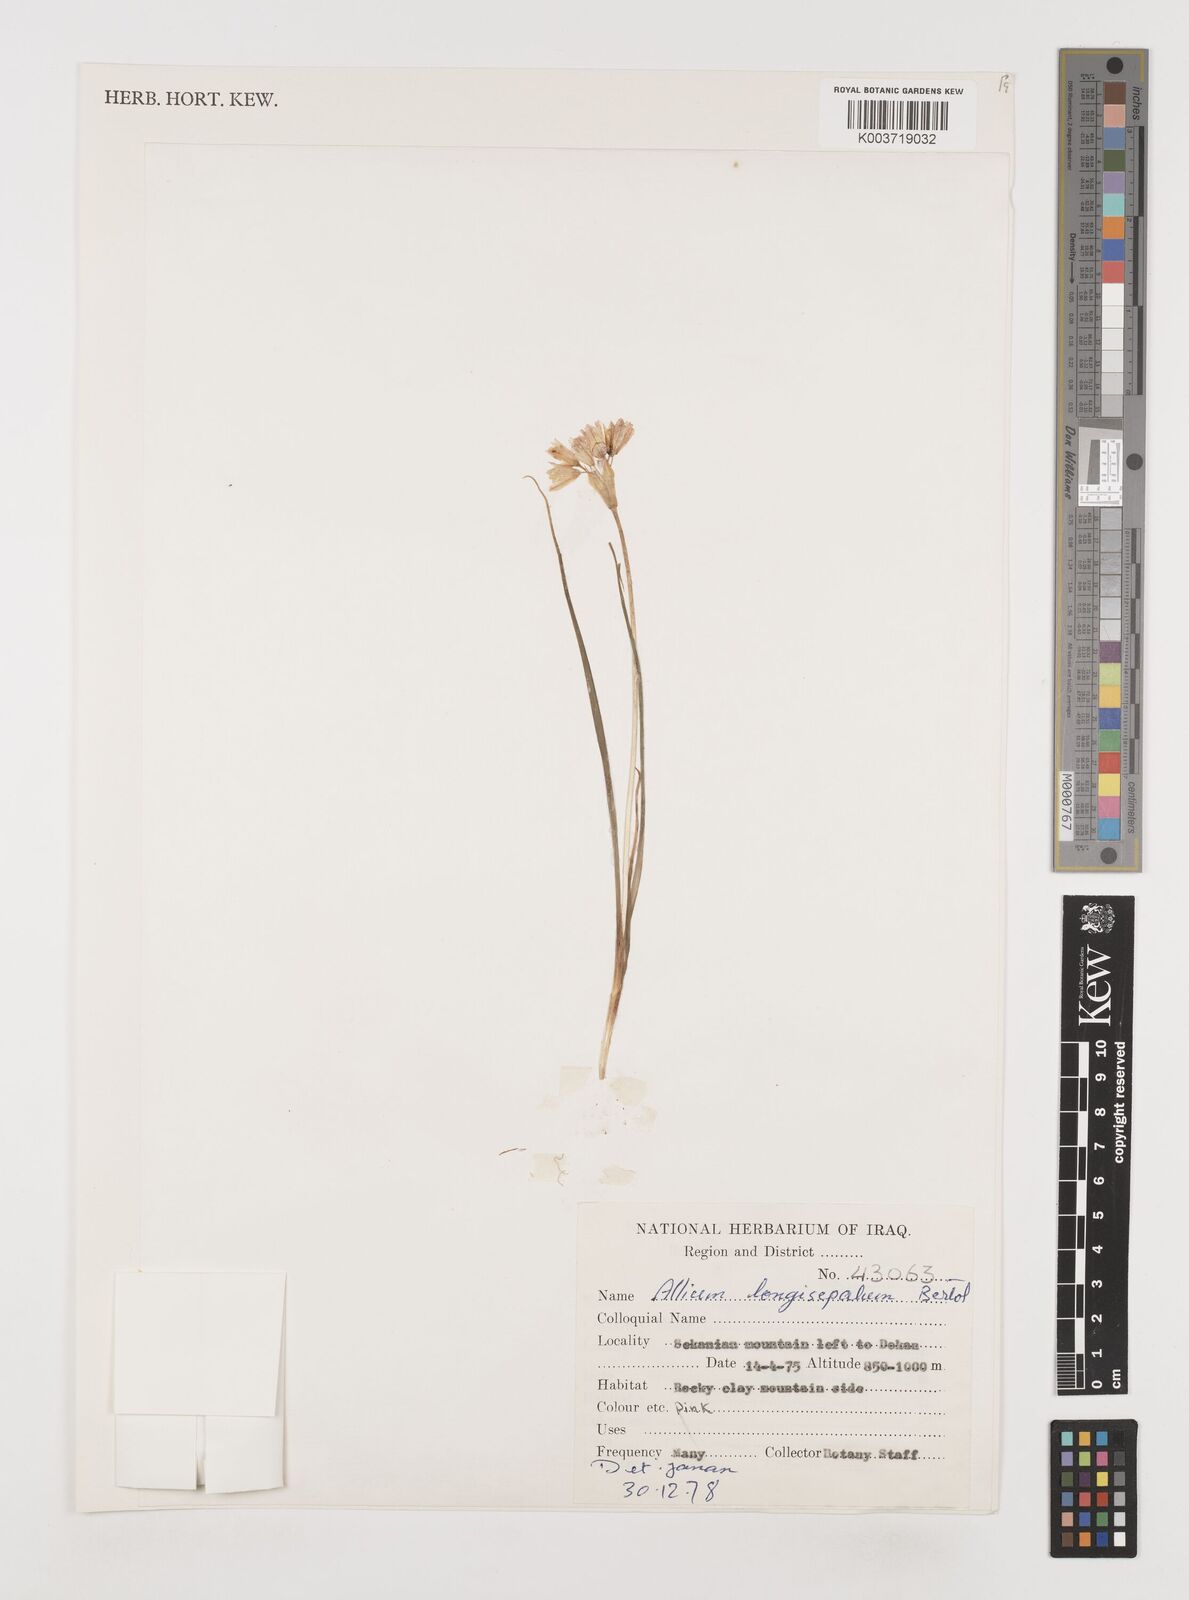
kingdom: Plantae
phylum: Tracheophyta
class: Liliopsida
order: Asparagales
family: Amaryllidaceae
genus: Allium
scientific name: Allium longisepalum
